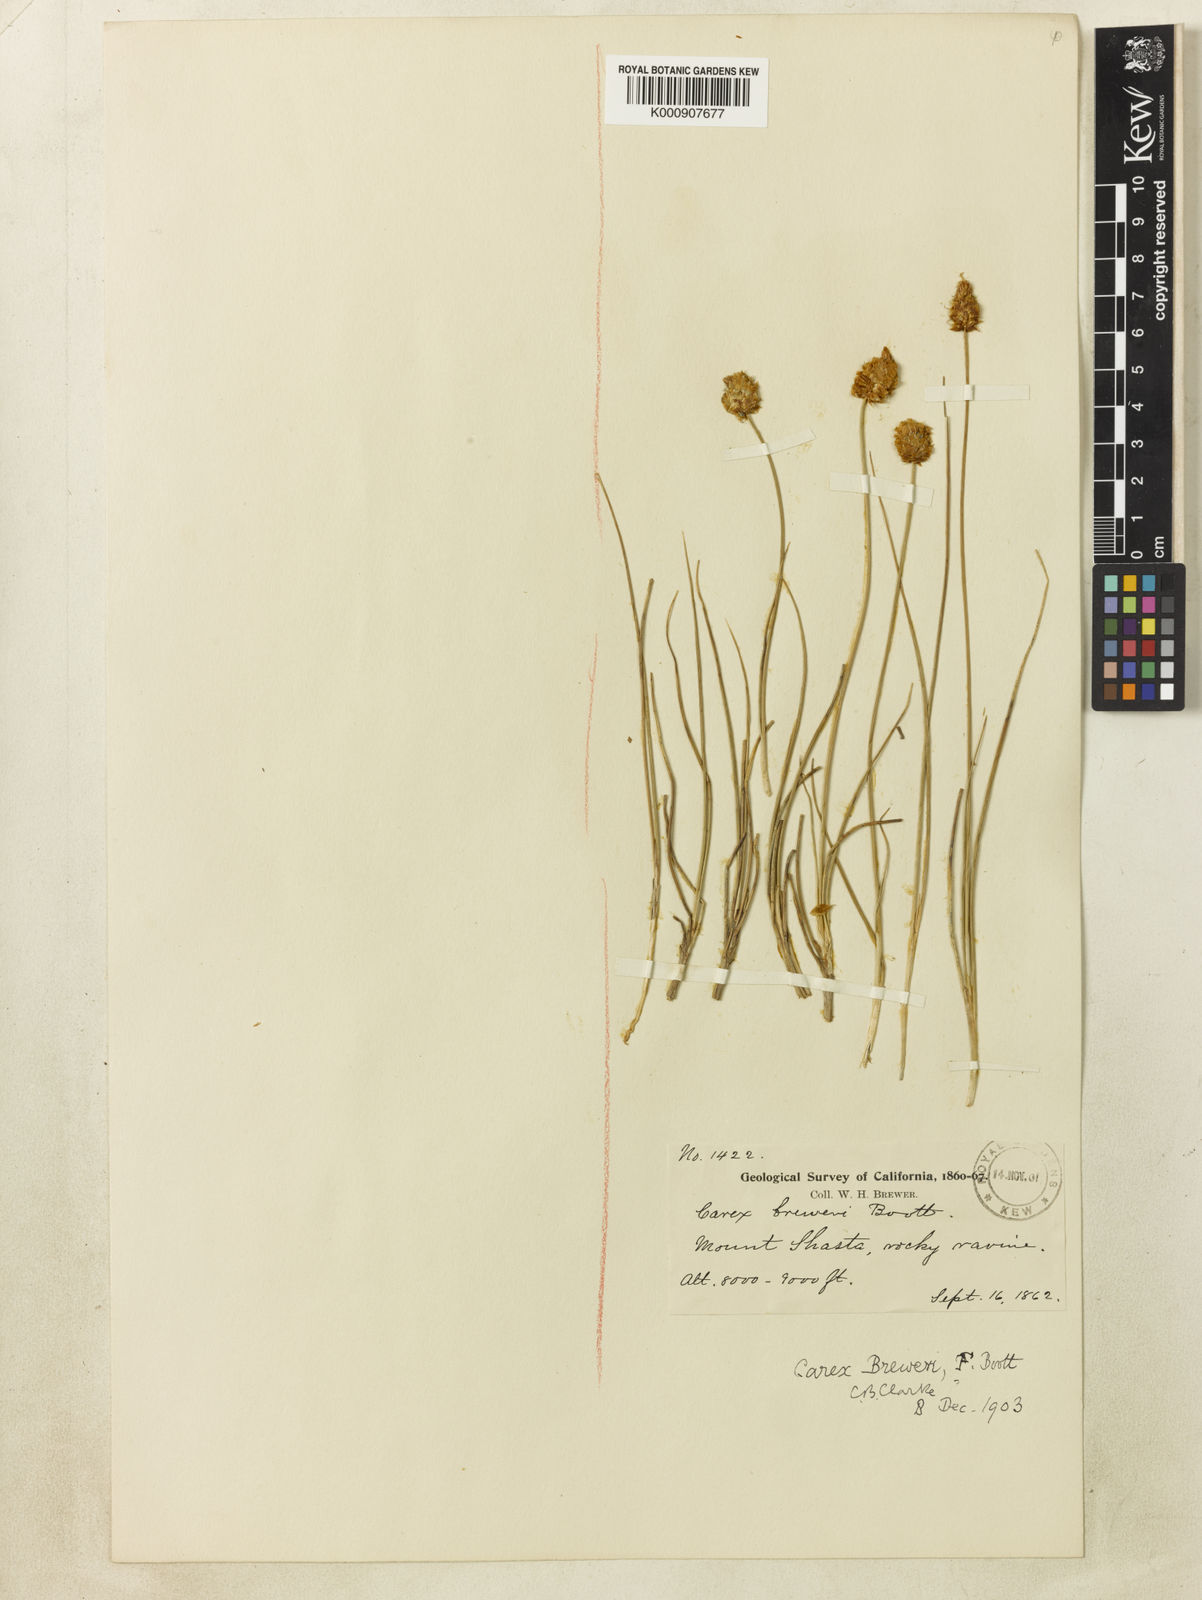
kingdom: Plantae
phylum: Tracheophyta
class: Liliopsida
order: Poales
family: Cyperaceae
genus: Carex
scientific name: Carex breweri
